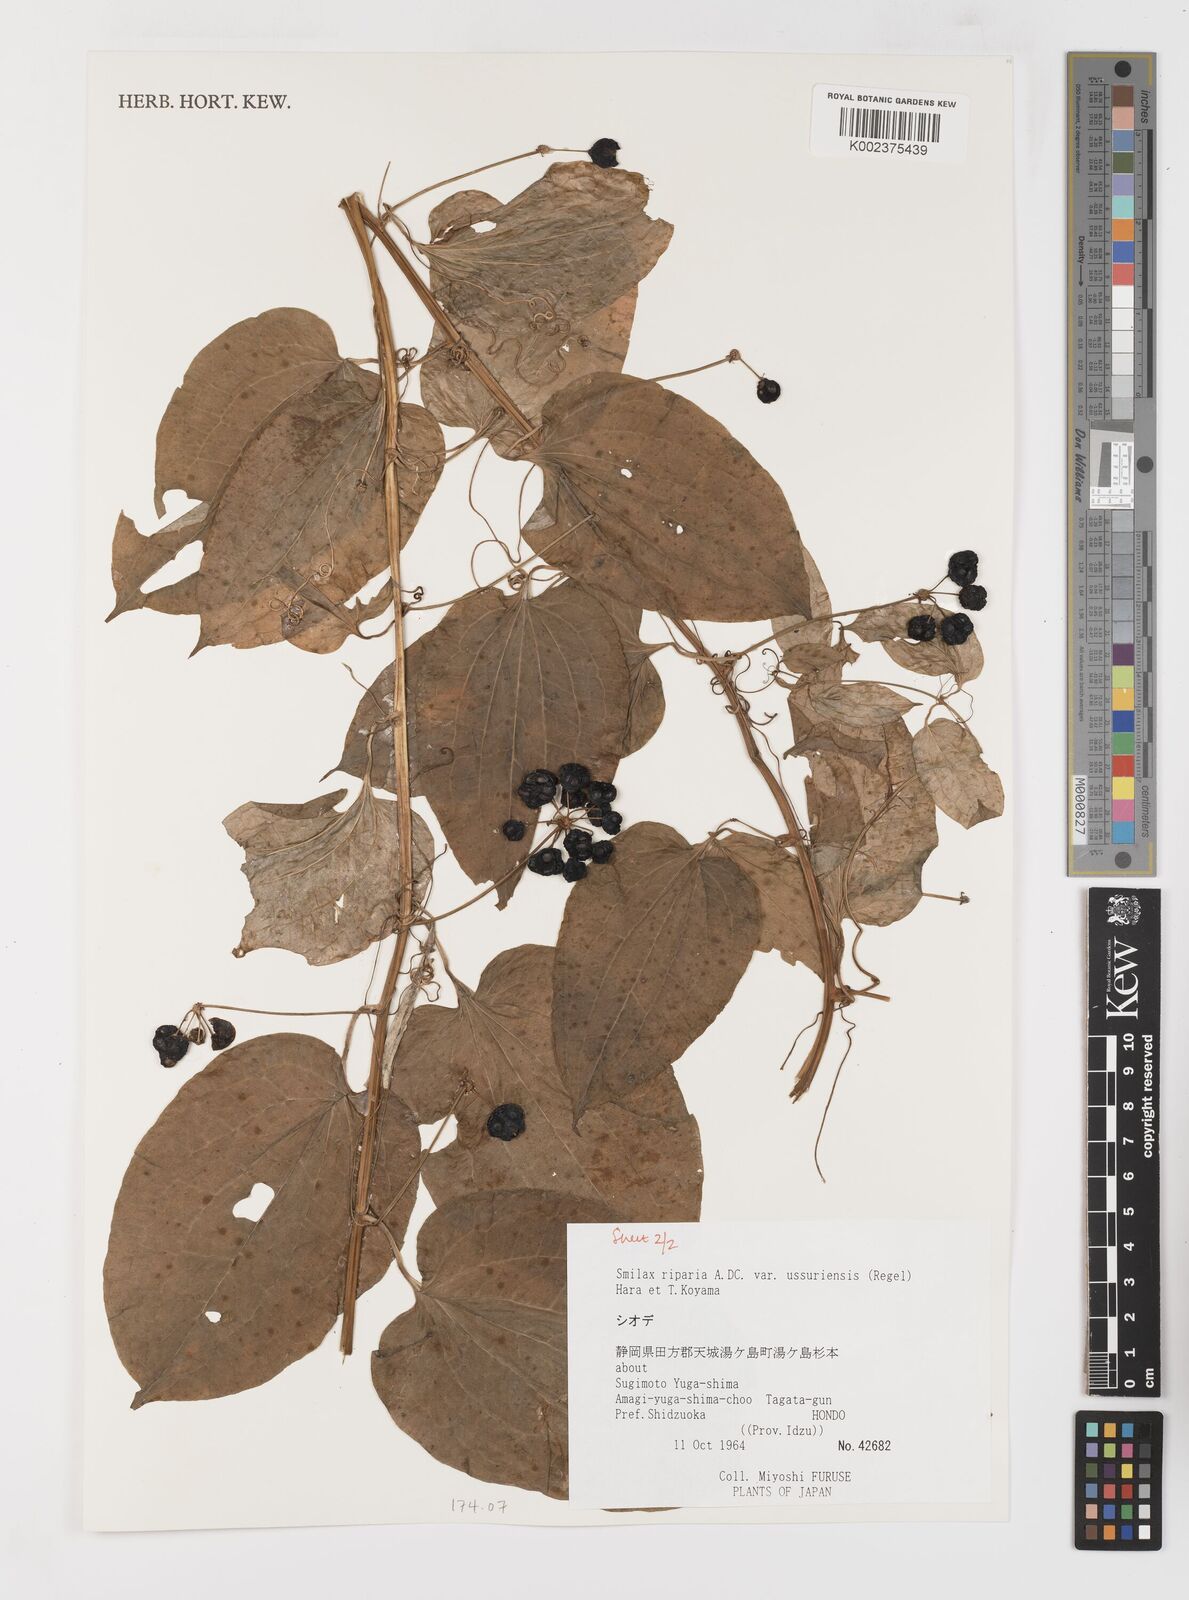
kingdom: Plantae
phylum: Tracheophyta
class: Liliopsida
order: Liliales
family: Smilacaceae
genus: Smilax
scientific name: Smilax riparia
